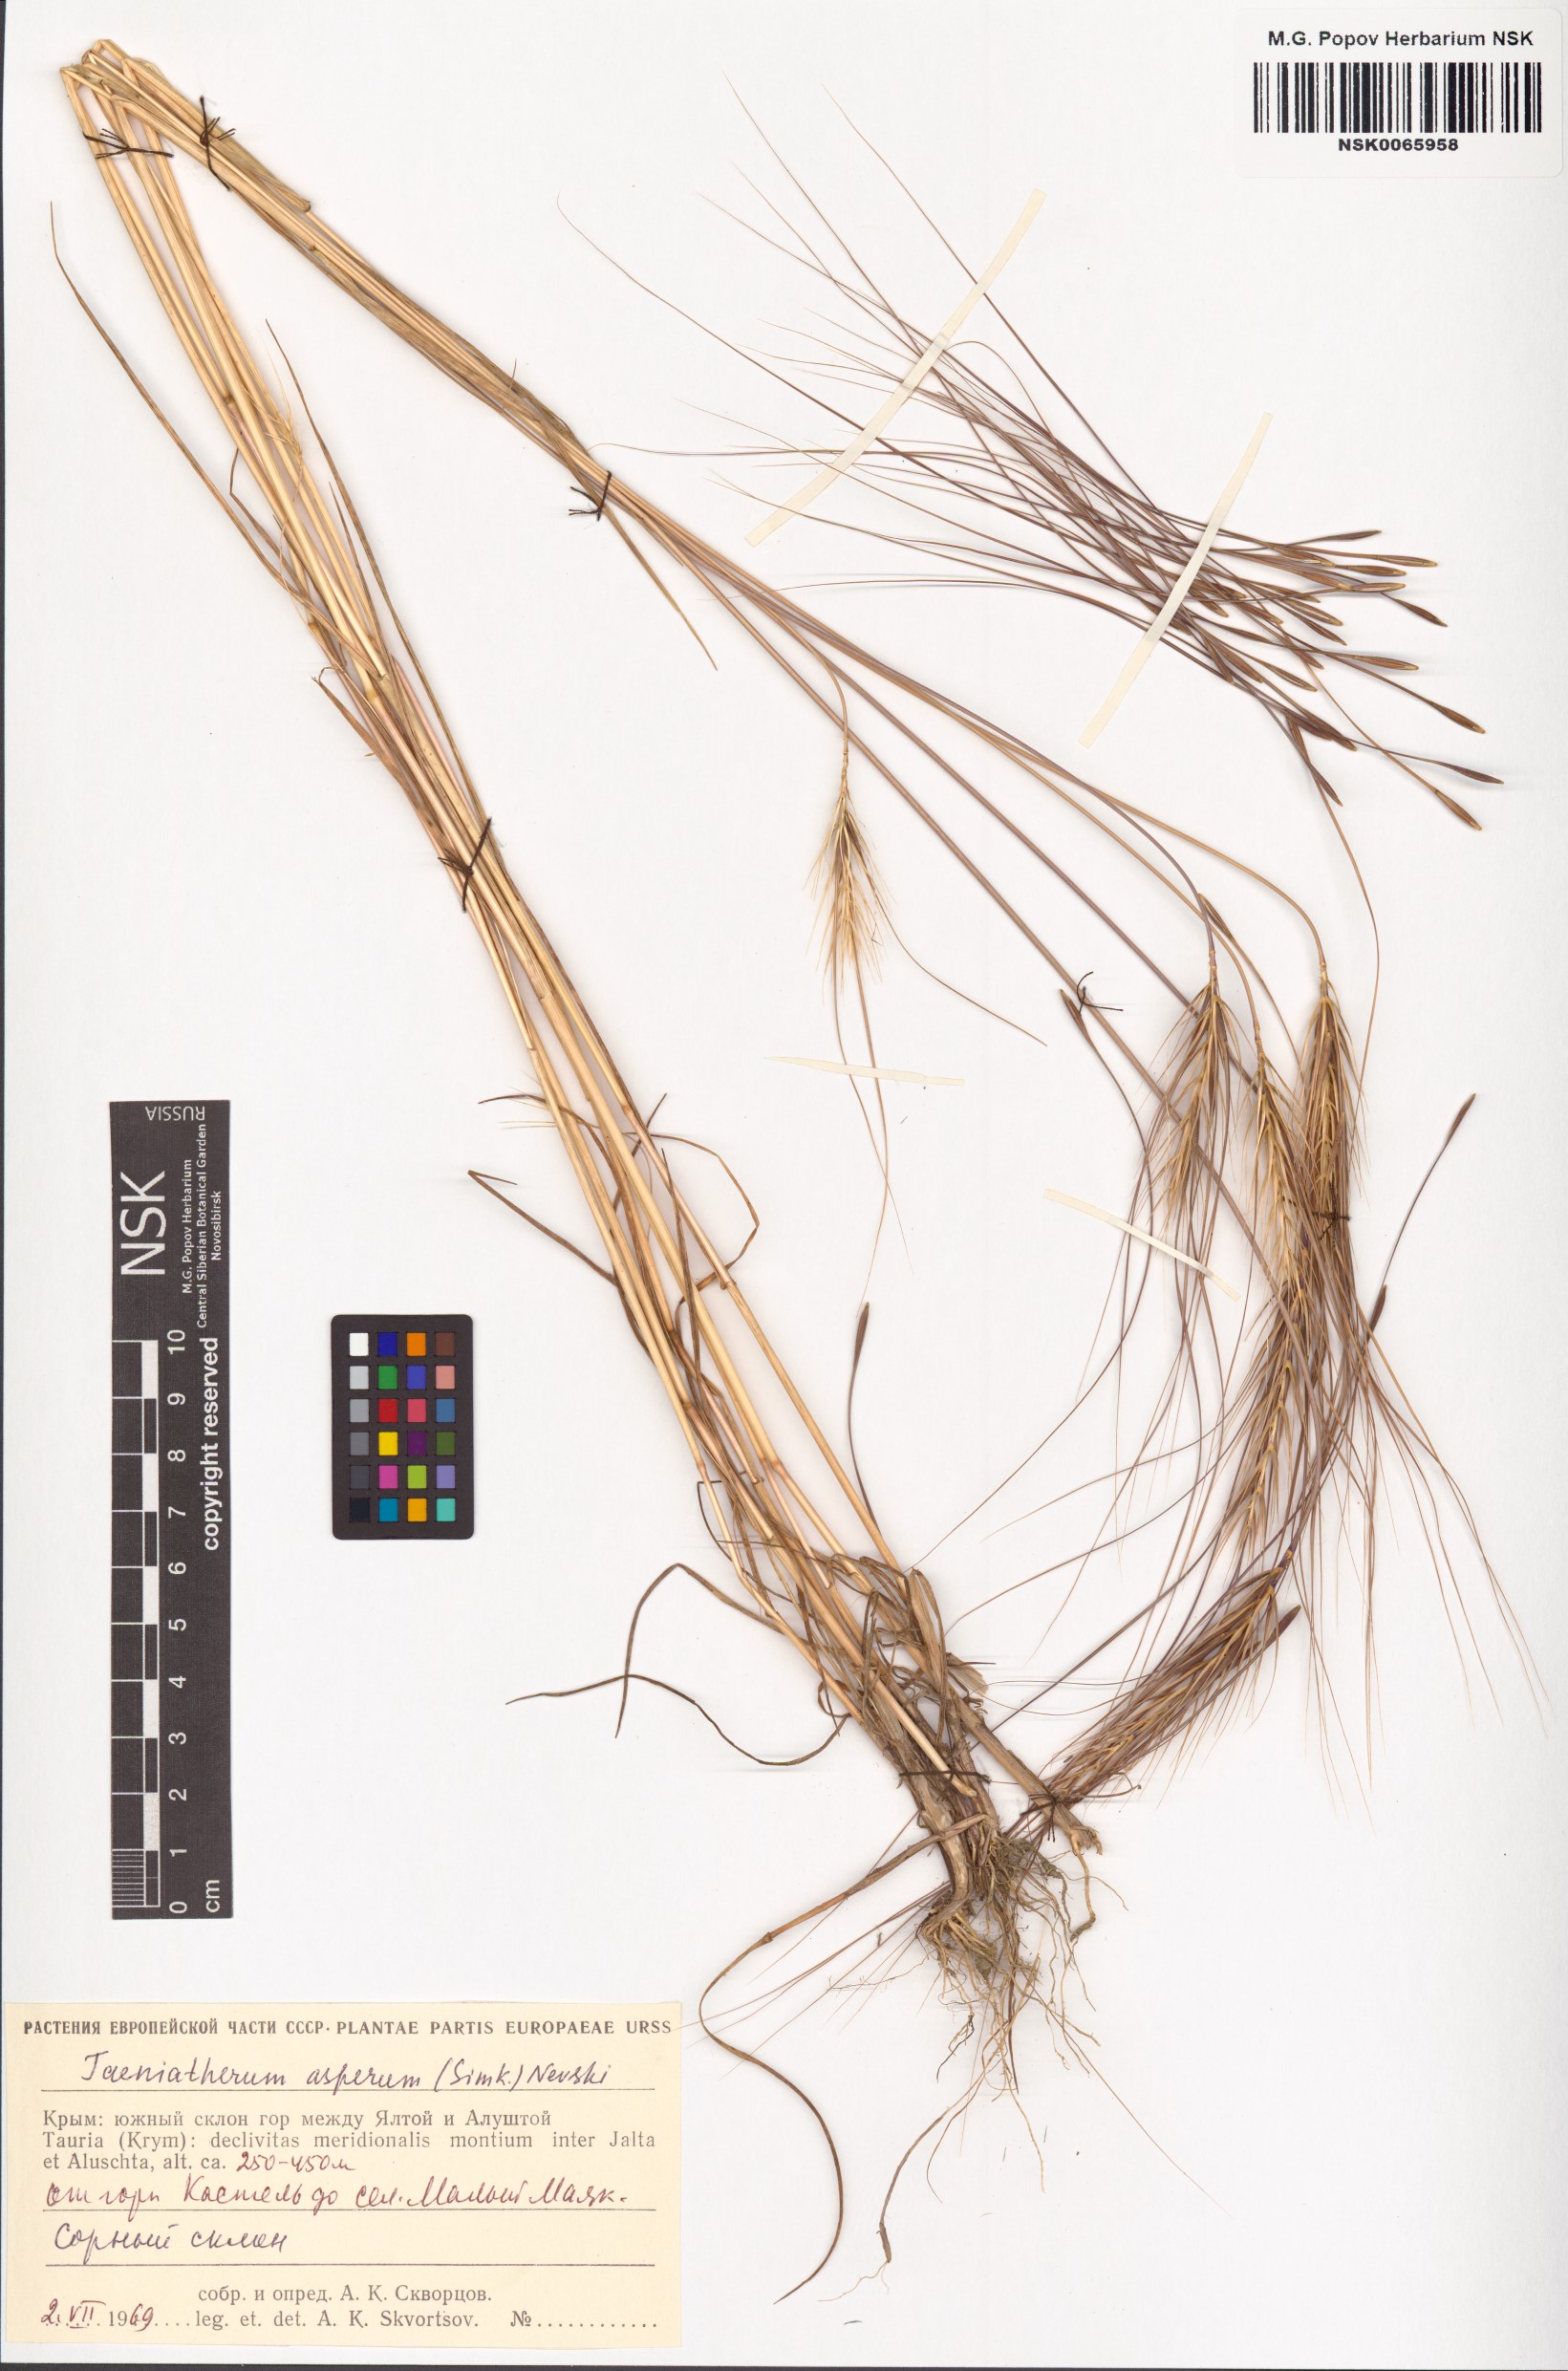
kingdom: Plantae
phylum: Tracheophyta
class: Liliopsida
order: Poales
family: Poaceae
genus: Taeniatherum
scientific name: Taeniatherum caput-medusae
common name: Medusahead
